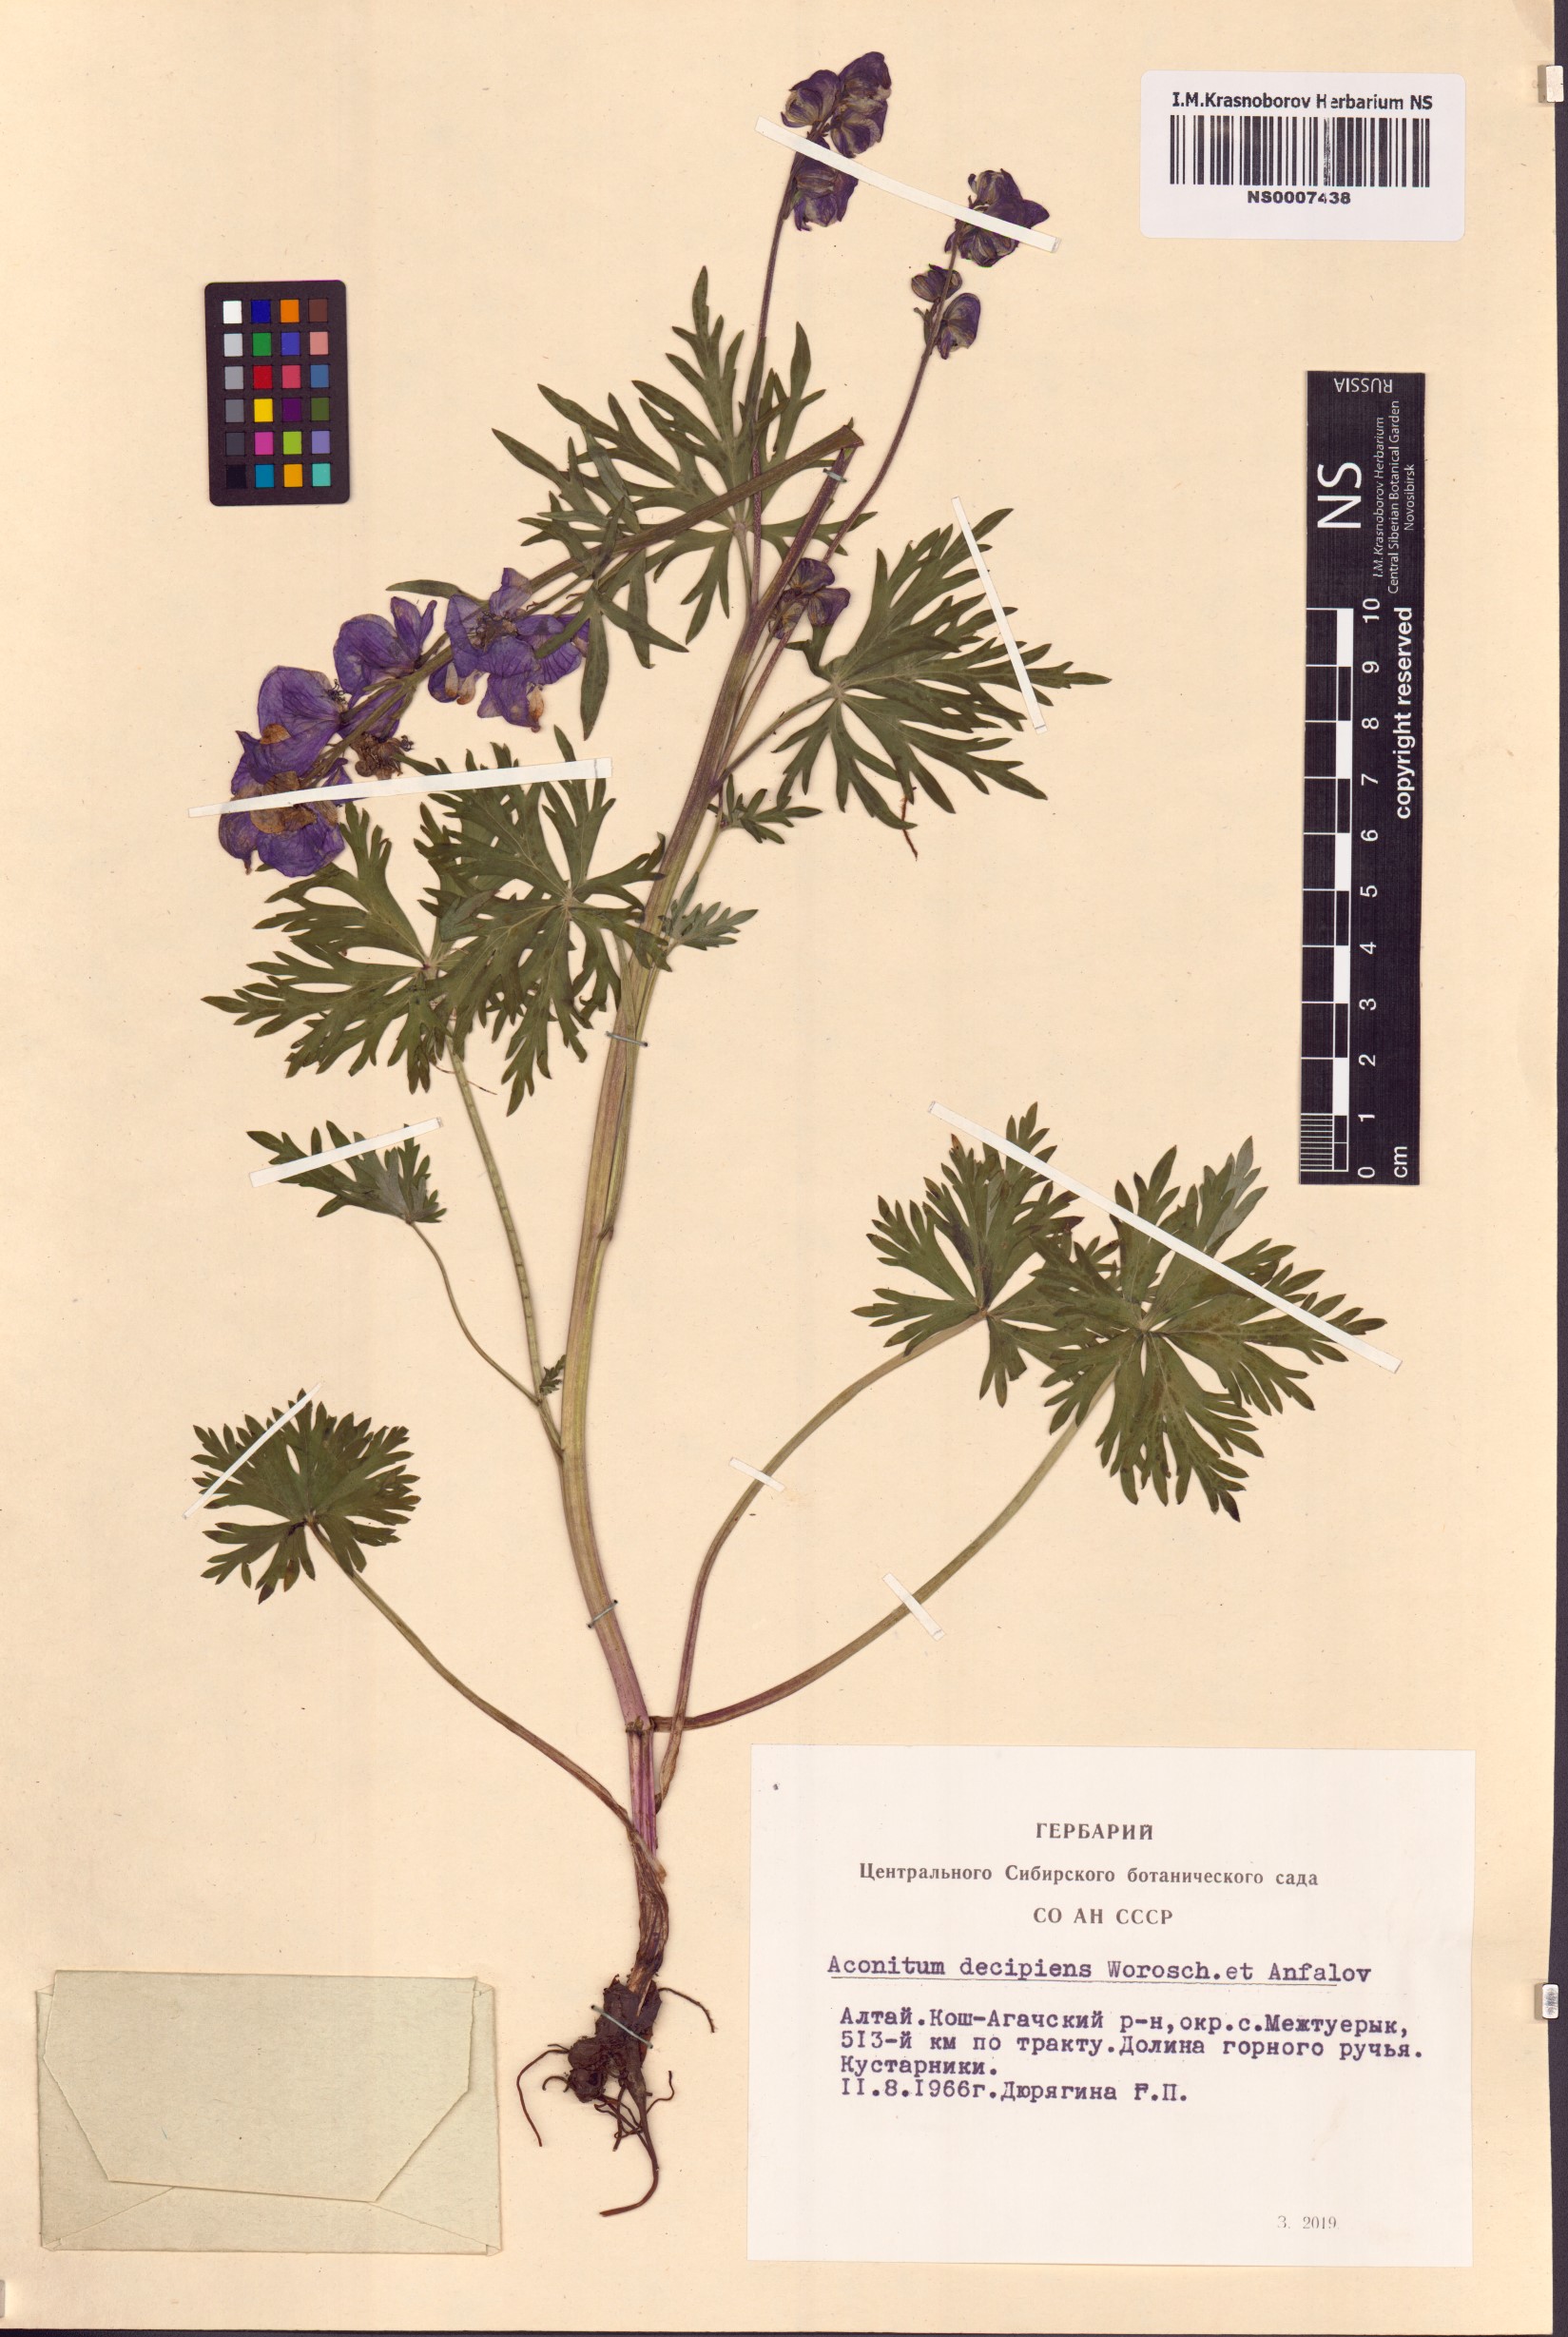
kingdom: Plantae
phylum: Tracheophyta
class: Magnoliopsida
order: Ranunculales
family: Ranunculaceae
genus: Aconitum
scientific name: Aconitum decipiens
